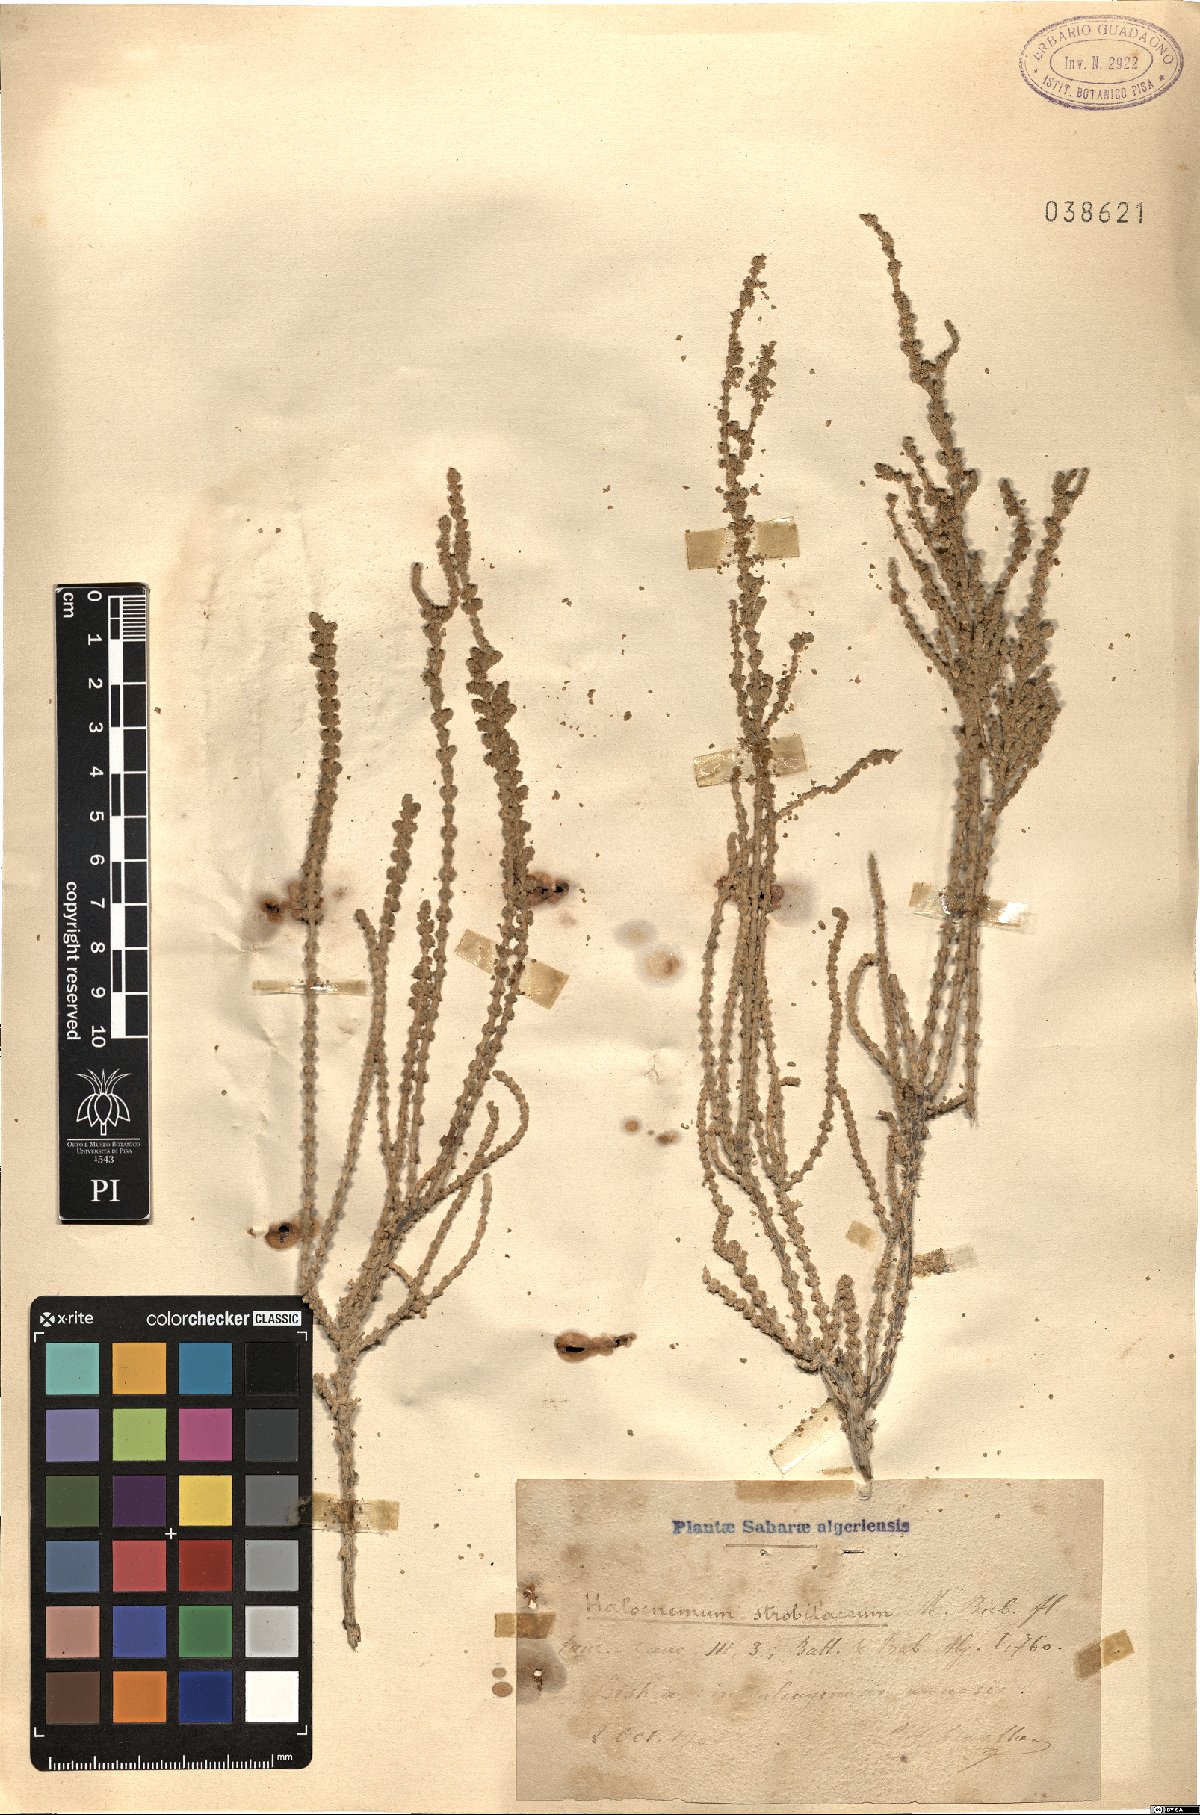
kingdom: Plantae
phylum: Tracheophyta
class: Magnoliopsida
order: Caryophyllales
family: Amaranthaceae
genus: Halocnemum
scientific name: Halocnemum strobilaceum
